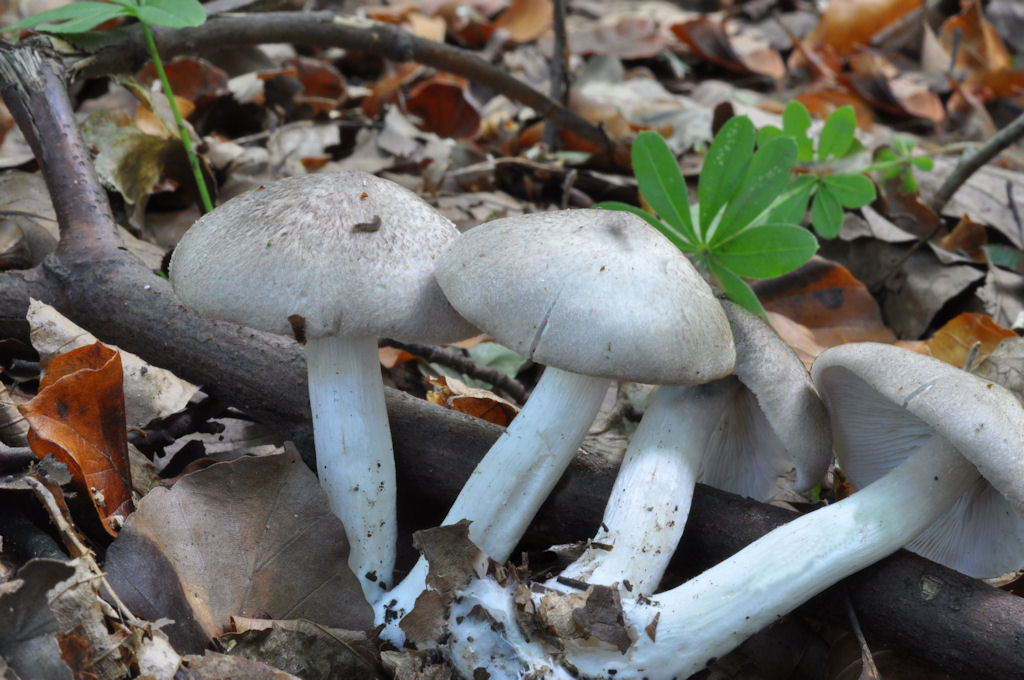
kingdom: Fungi
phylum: Basidiomycota
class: Agaricomycetes
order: Agaricales
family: Tricholomataceae
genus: Tricholoma
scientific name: Tricholoma scalpturatum
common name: gulplettet ridderhat
